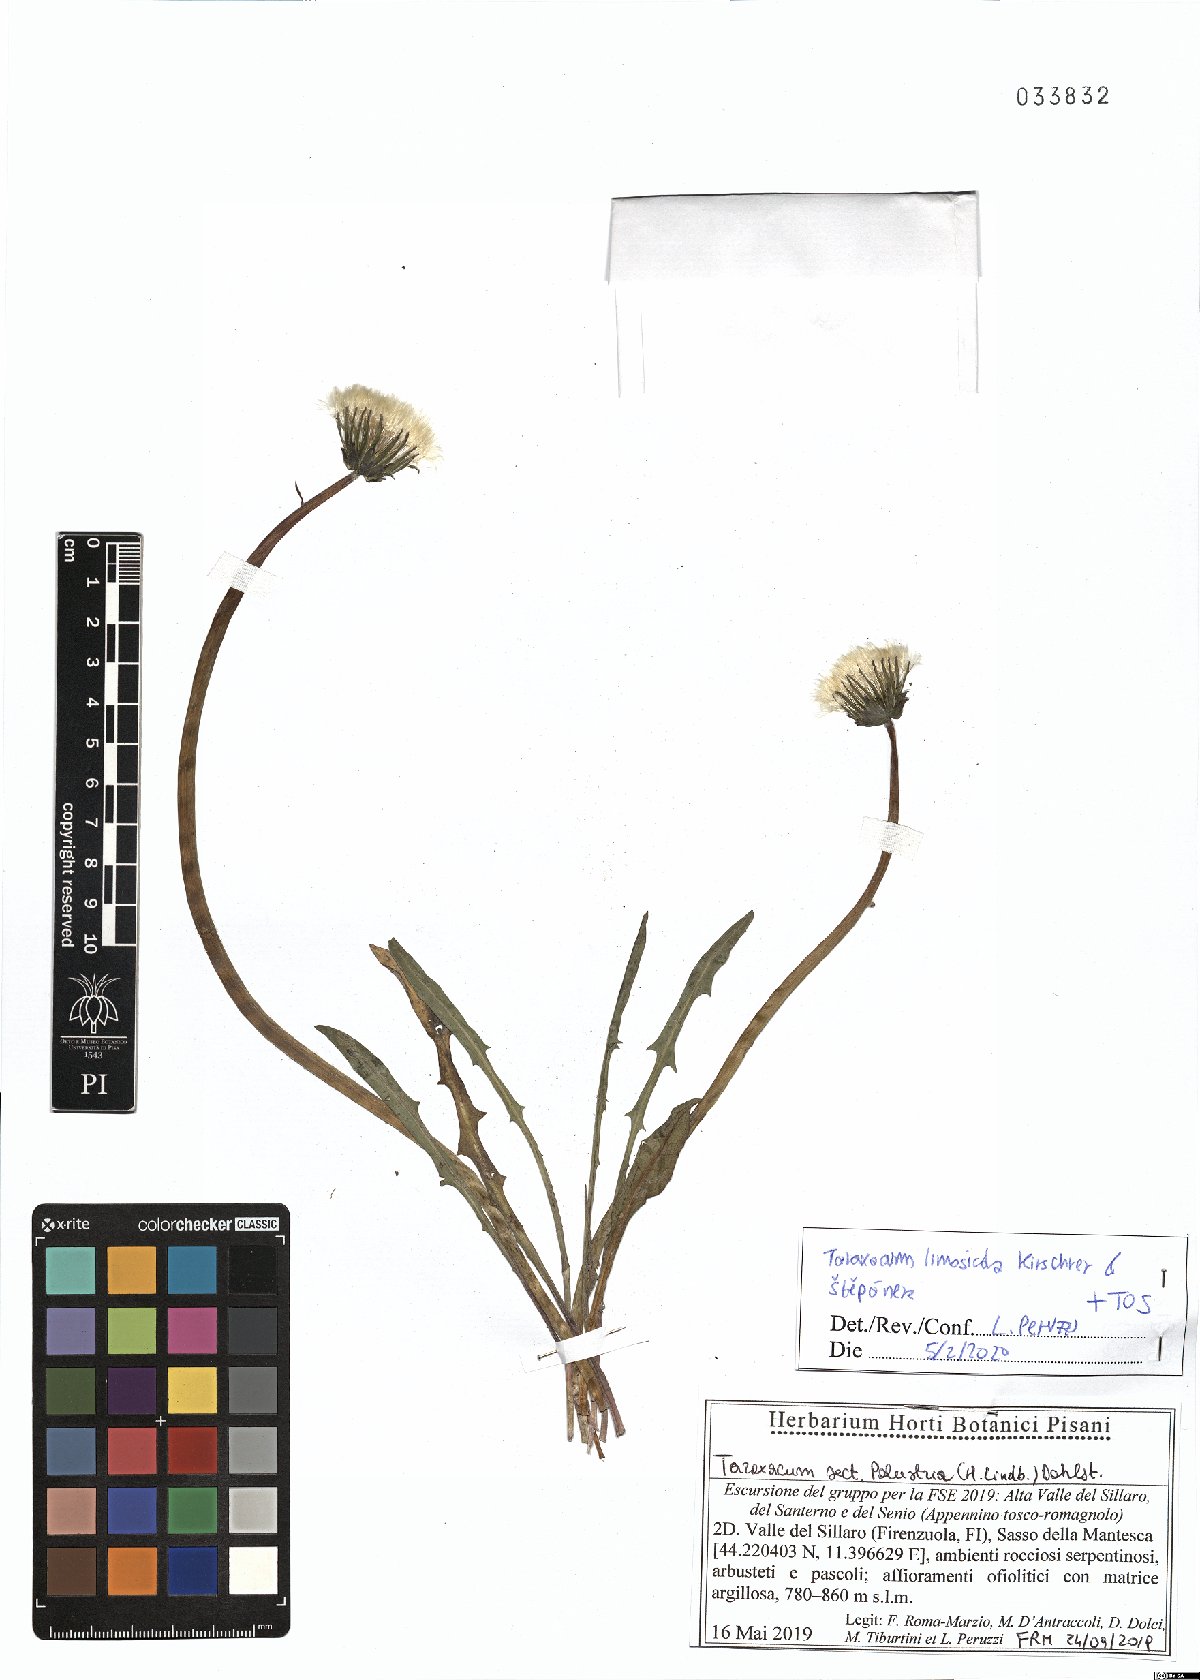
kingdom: Plantae
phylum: Tracheophyta
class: Magnoliopsida
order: Asterales
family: Asteraceae
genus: Taraxacum
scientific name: Taraxacum limosicola
